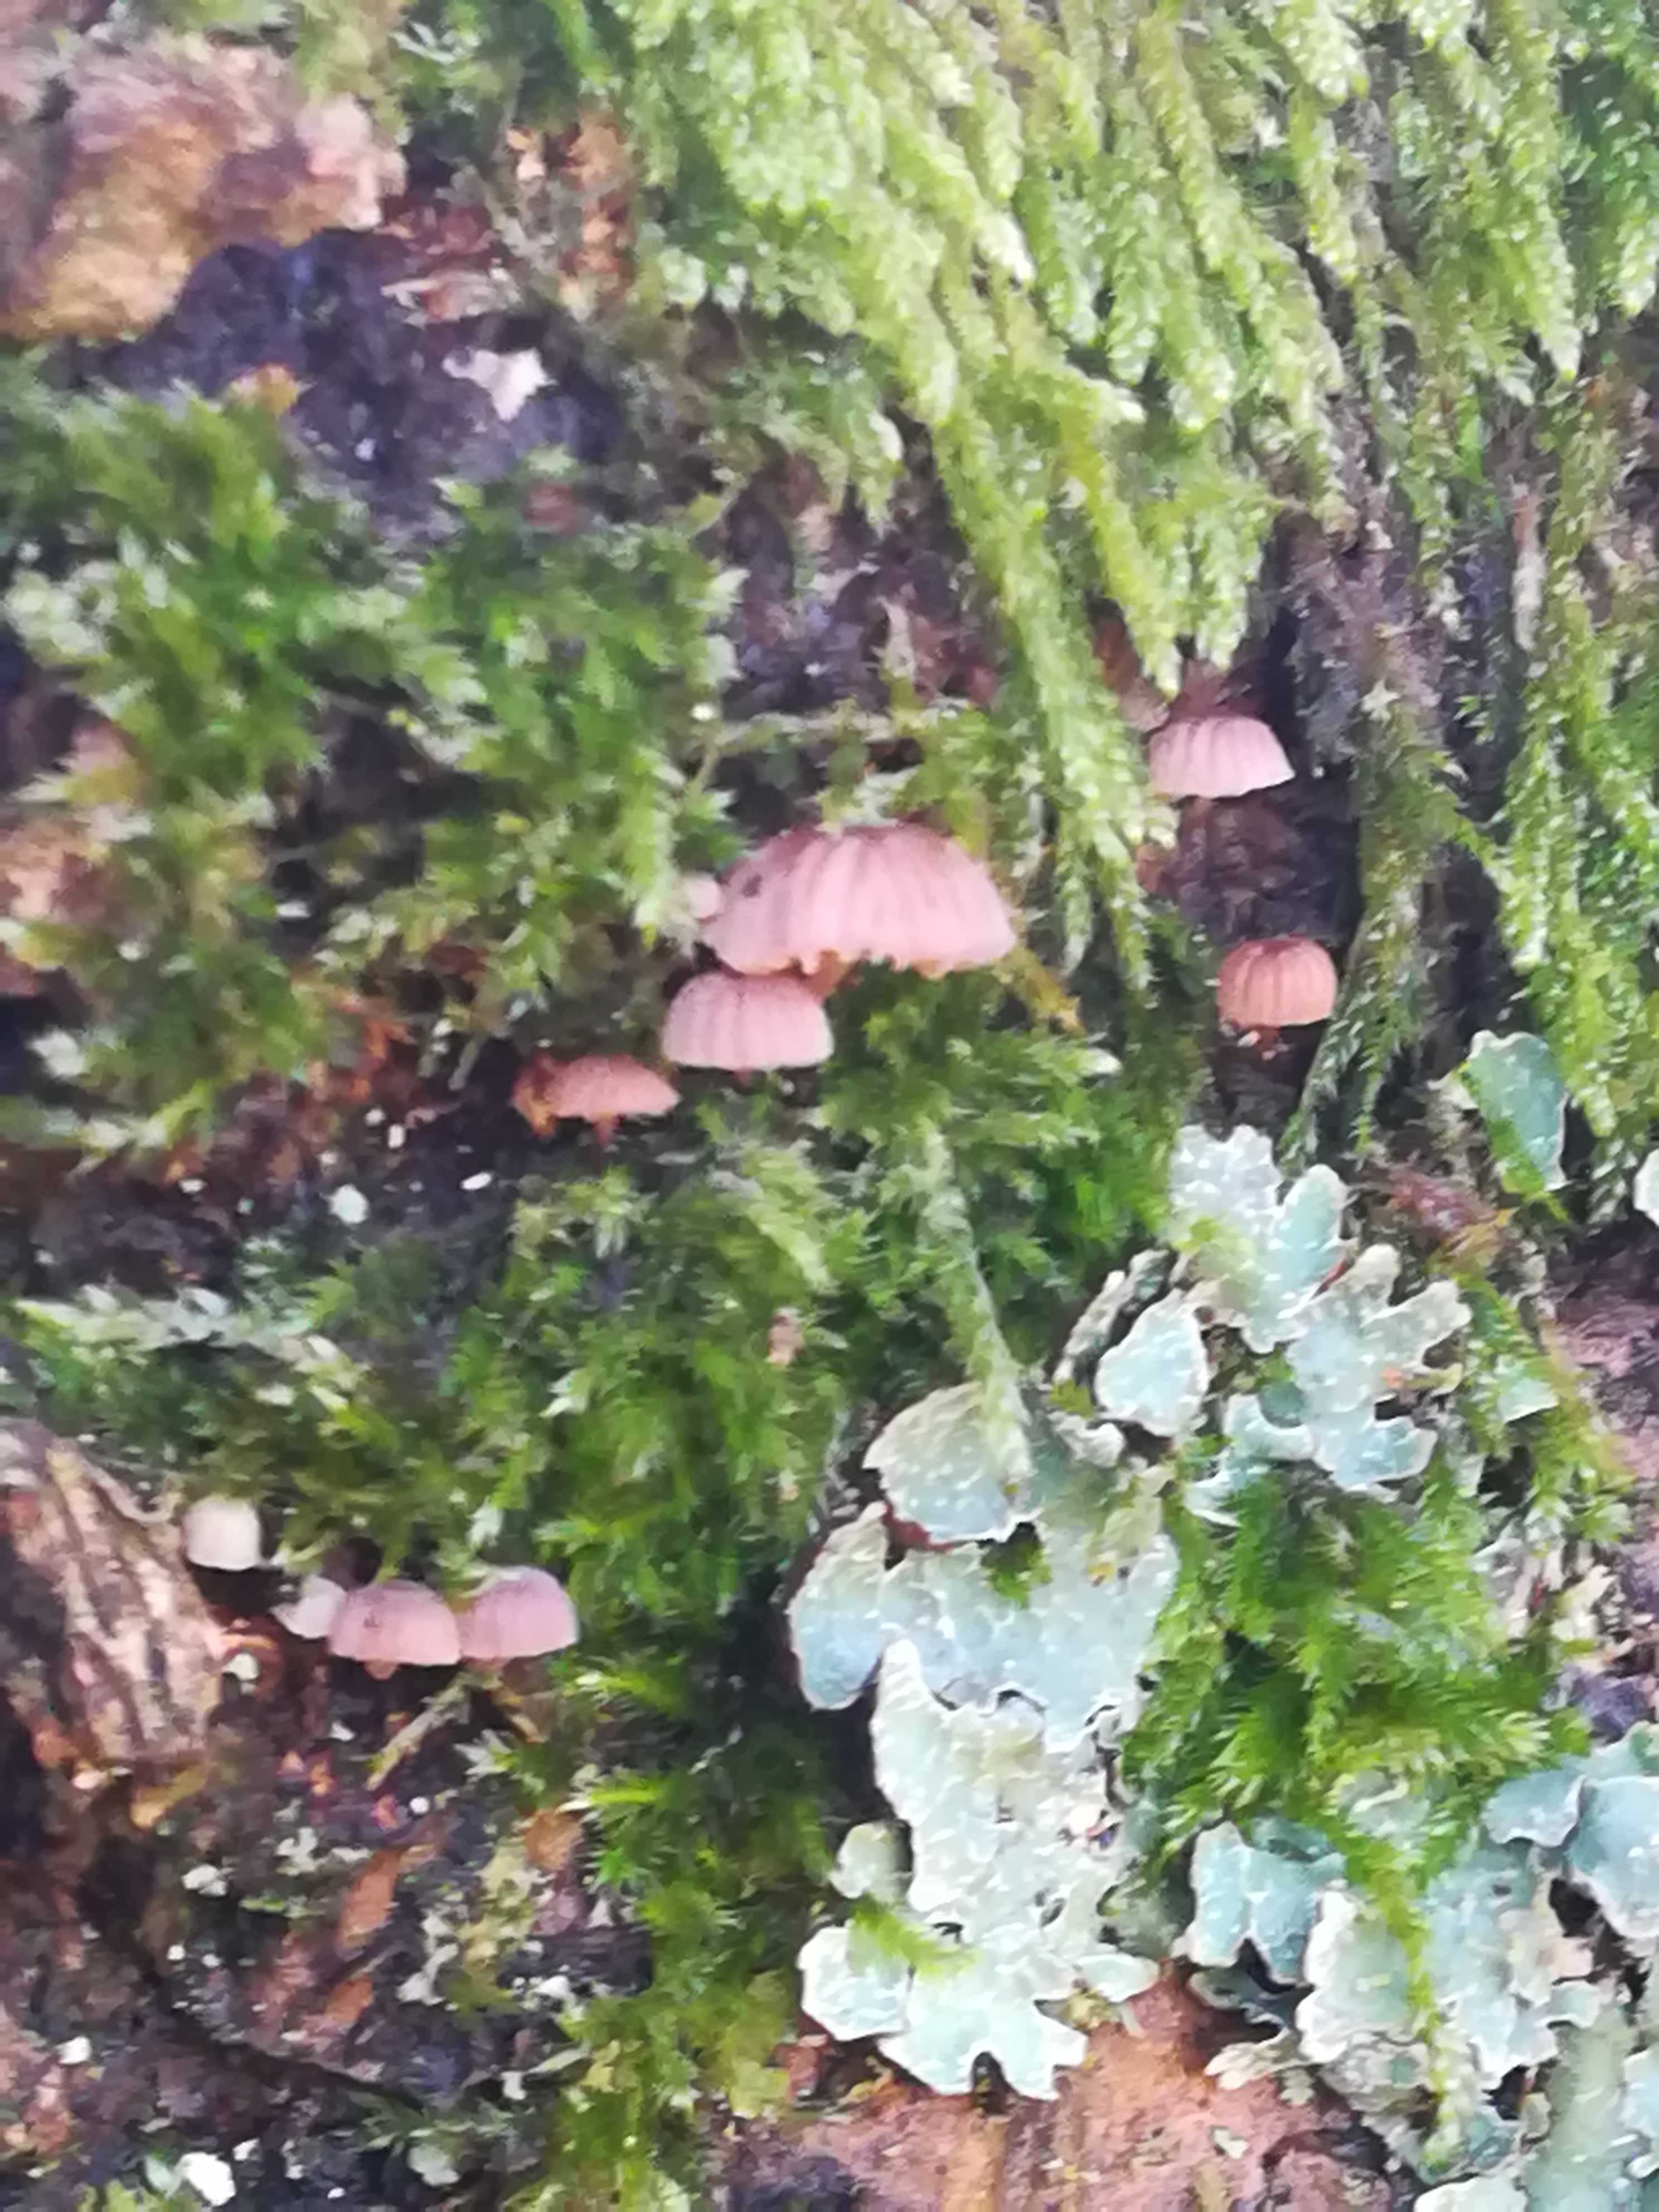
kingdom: Fungi
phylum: Basidiomycota
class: Agaricomycetes
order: Agaricales
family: Mycenaceae
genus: Mycena
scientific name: Mycena meliigena
